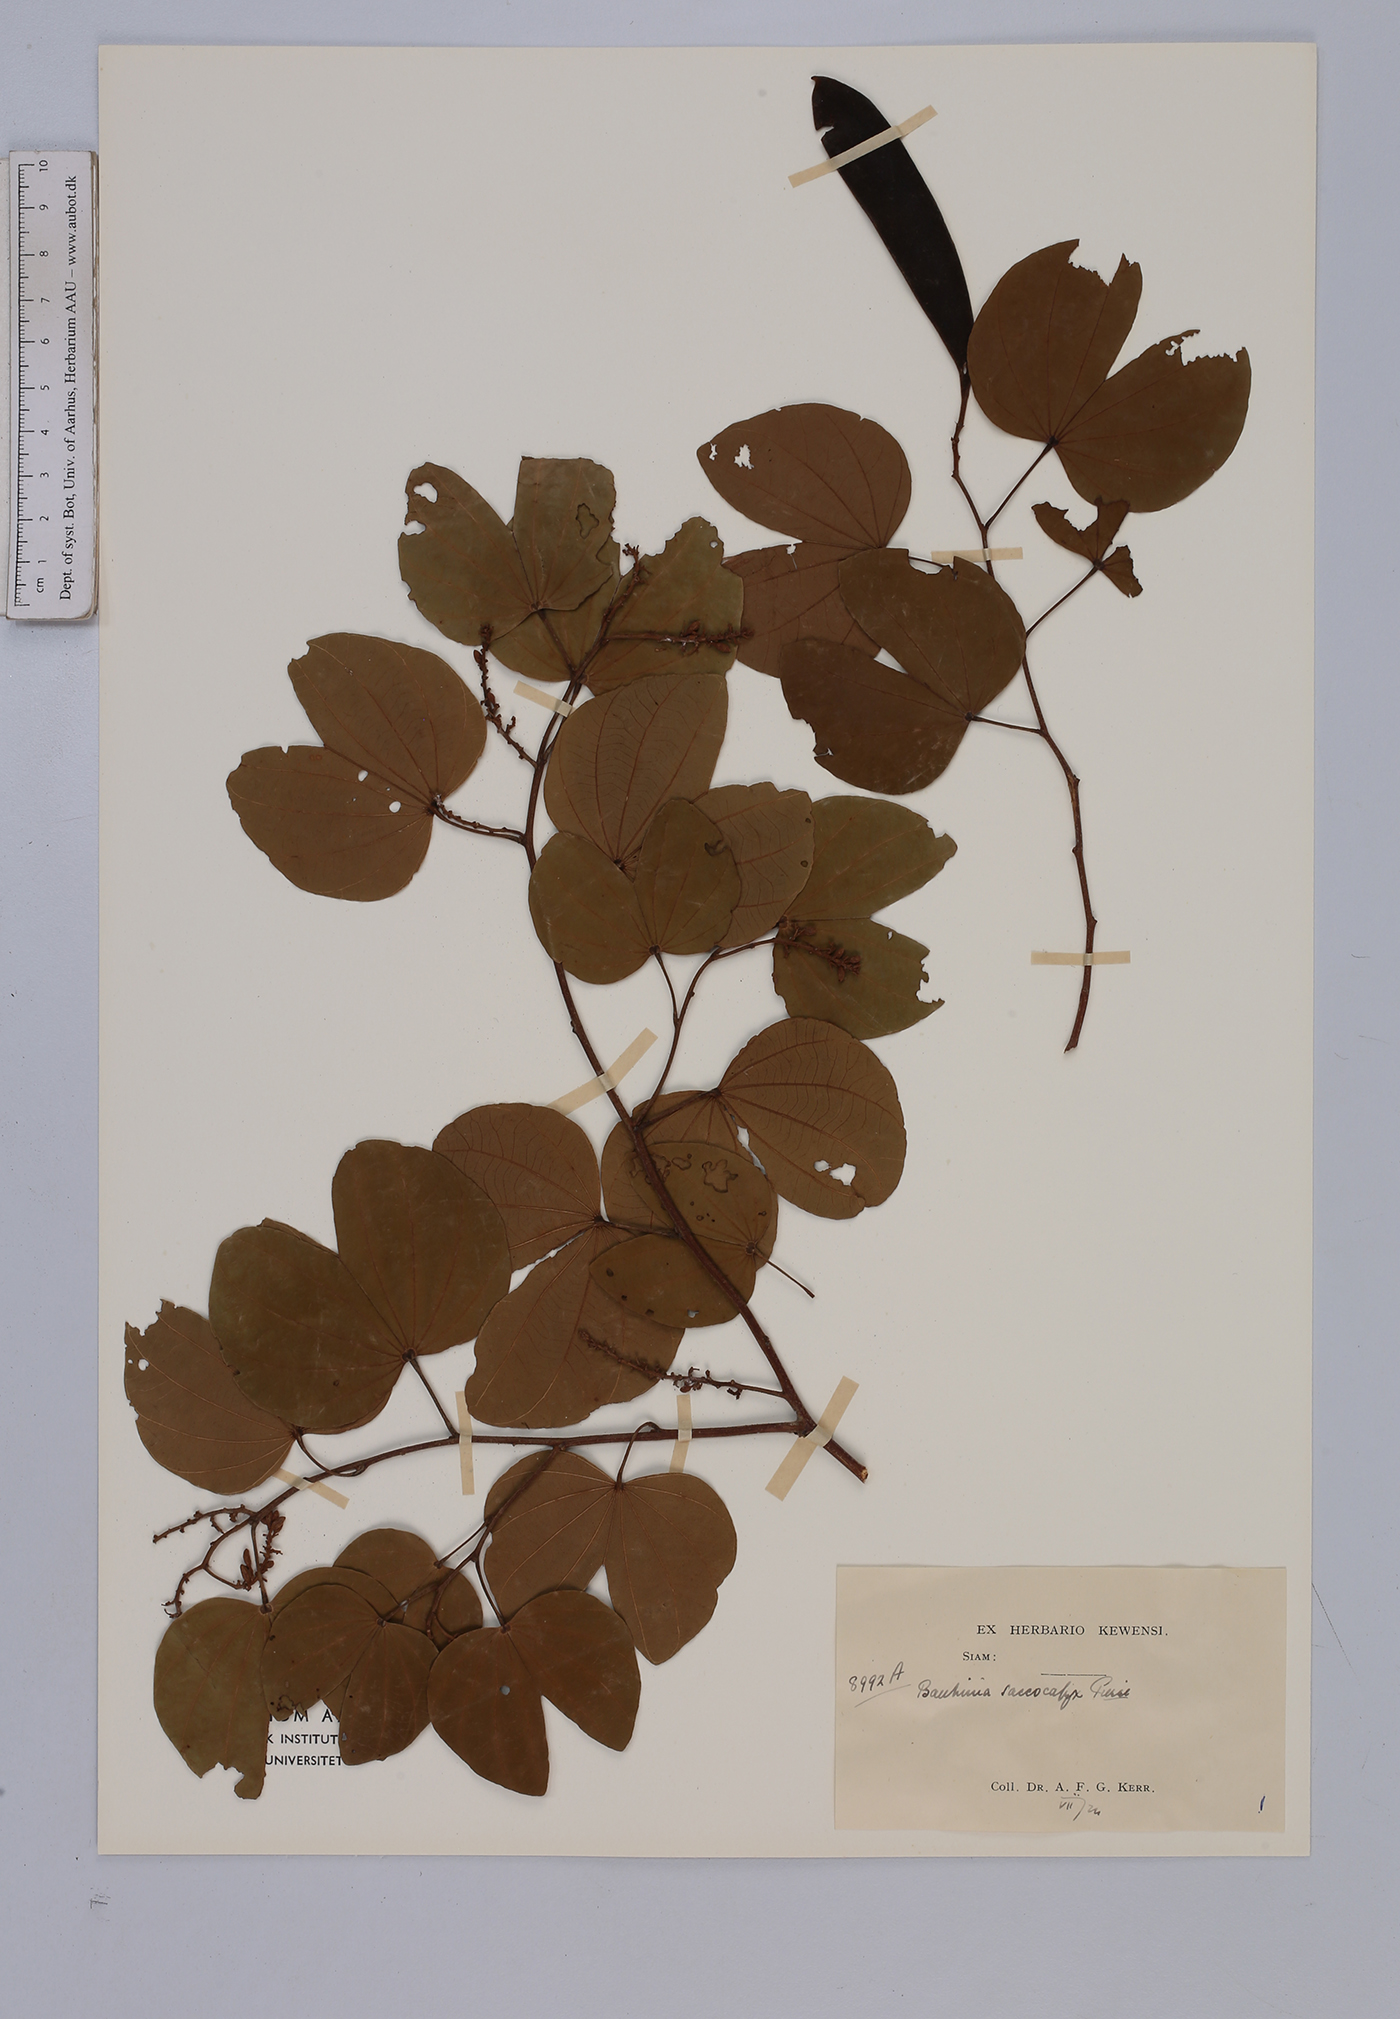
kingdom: Plantae
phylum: Tracheophyta
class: Magnoliopsida
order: Fabales
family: Fabaceae
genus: Bauhinia
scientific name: Bauhinia saccocalyx
